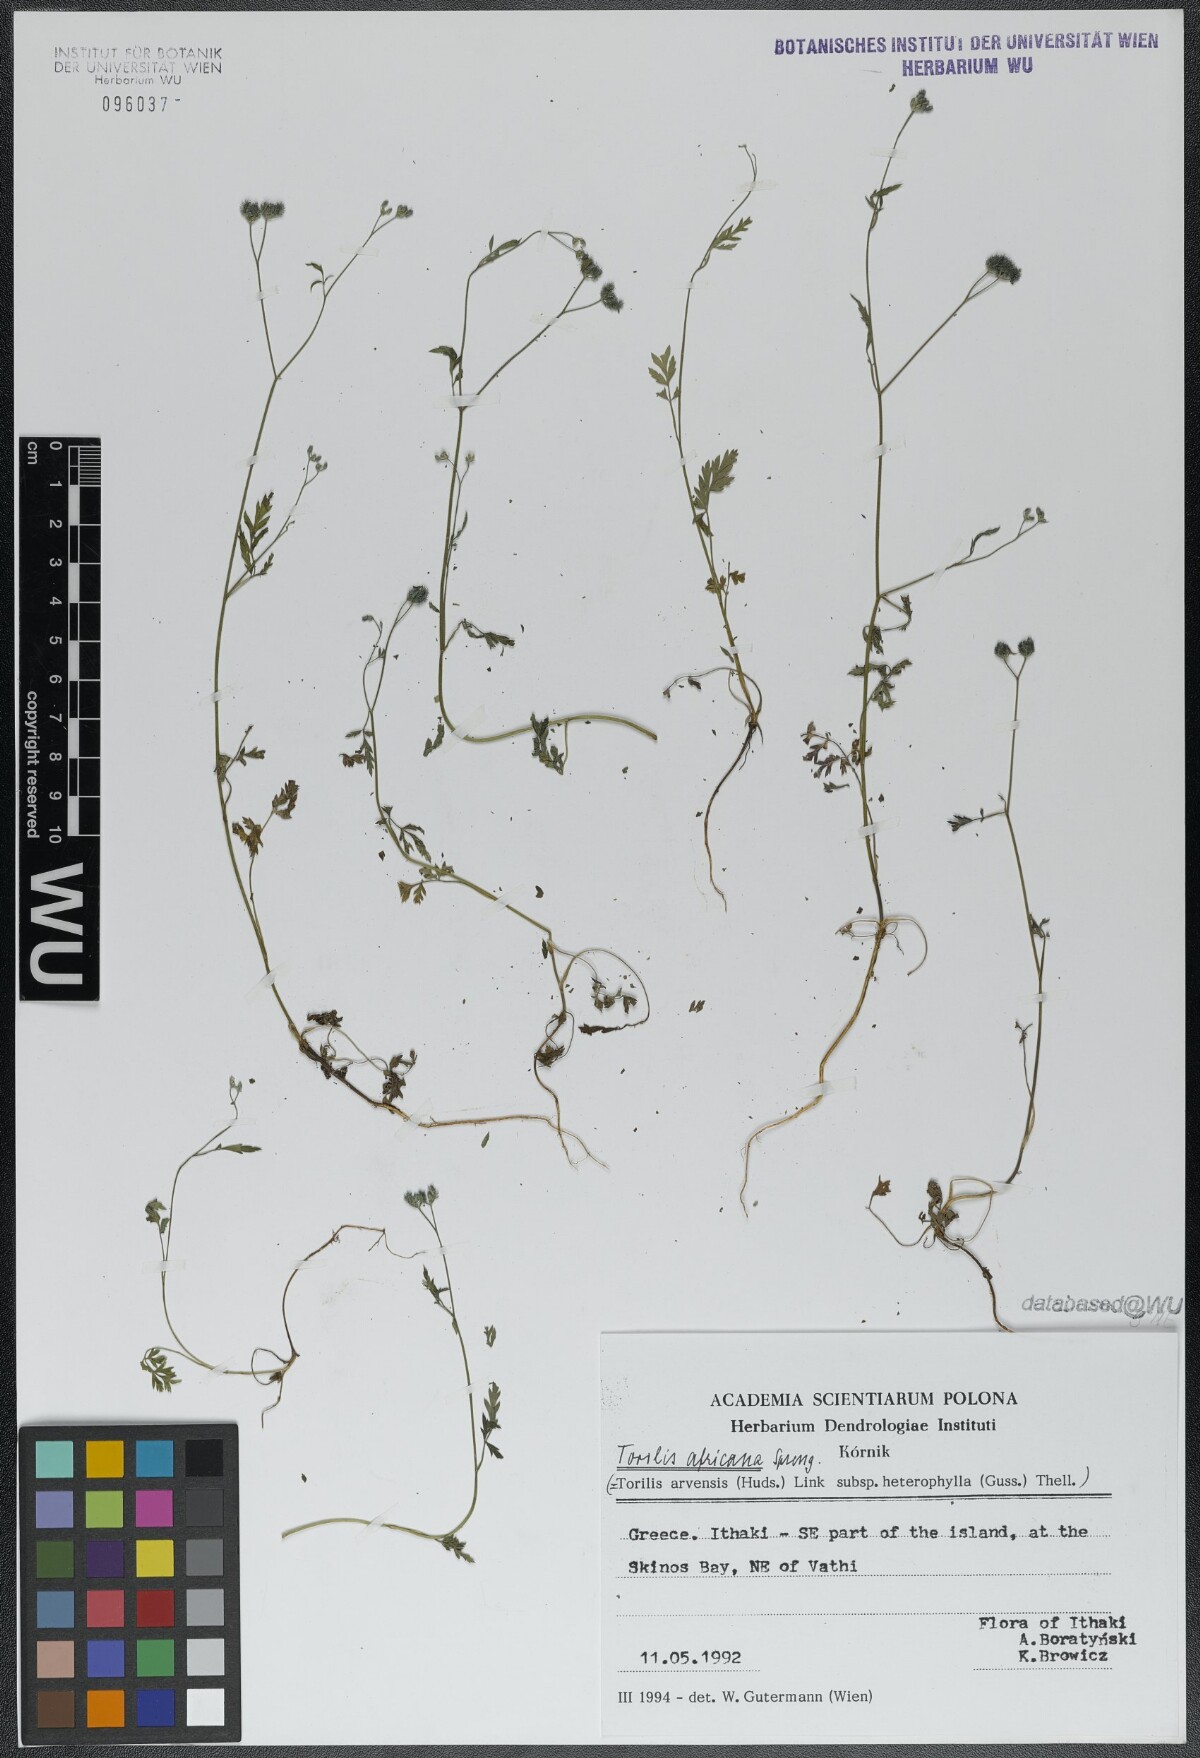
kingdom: Plantae
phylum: Tracheophyta
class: Magnoliopsida
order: Apiales
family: Apiaceae
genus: Torilis
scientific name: Torilis africana
